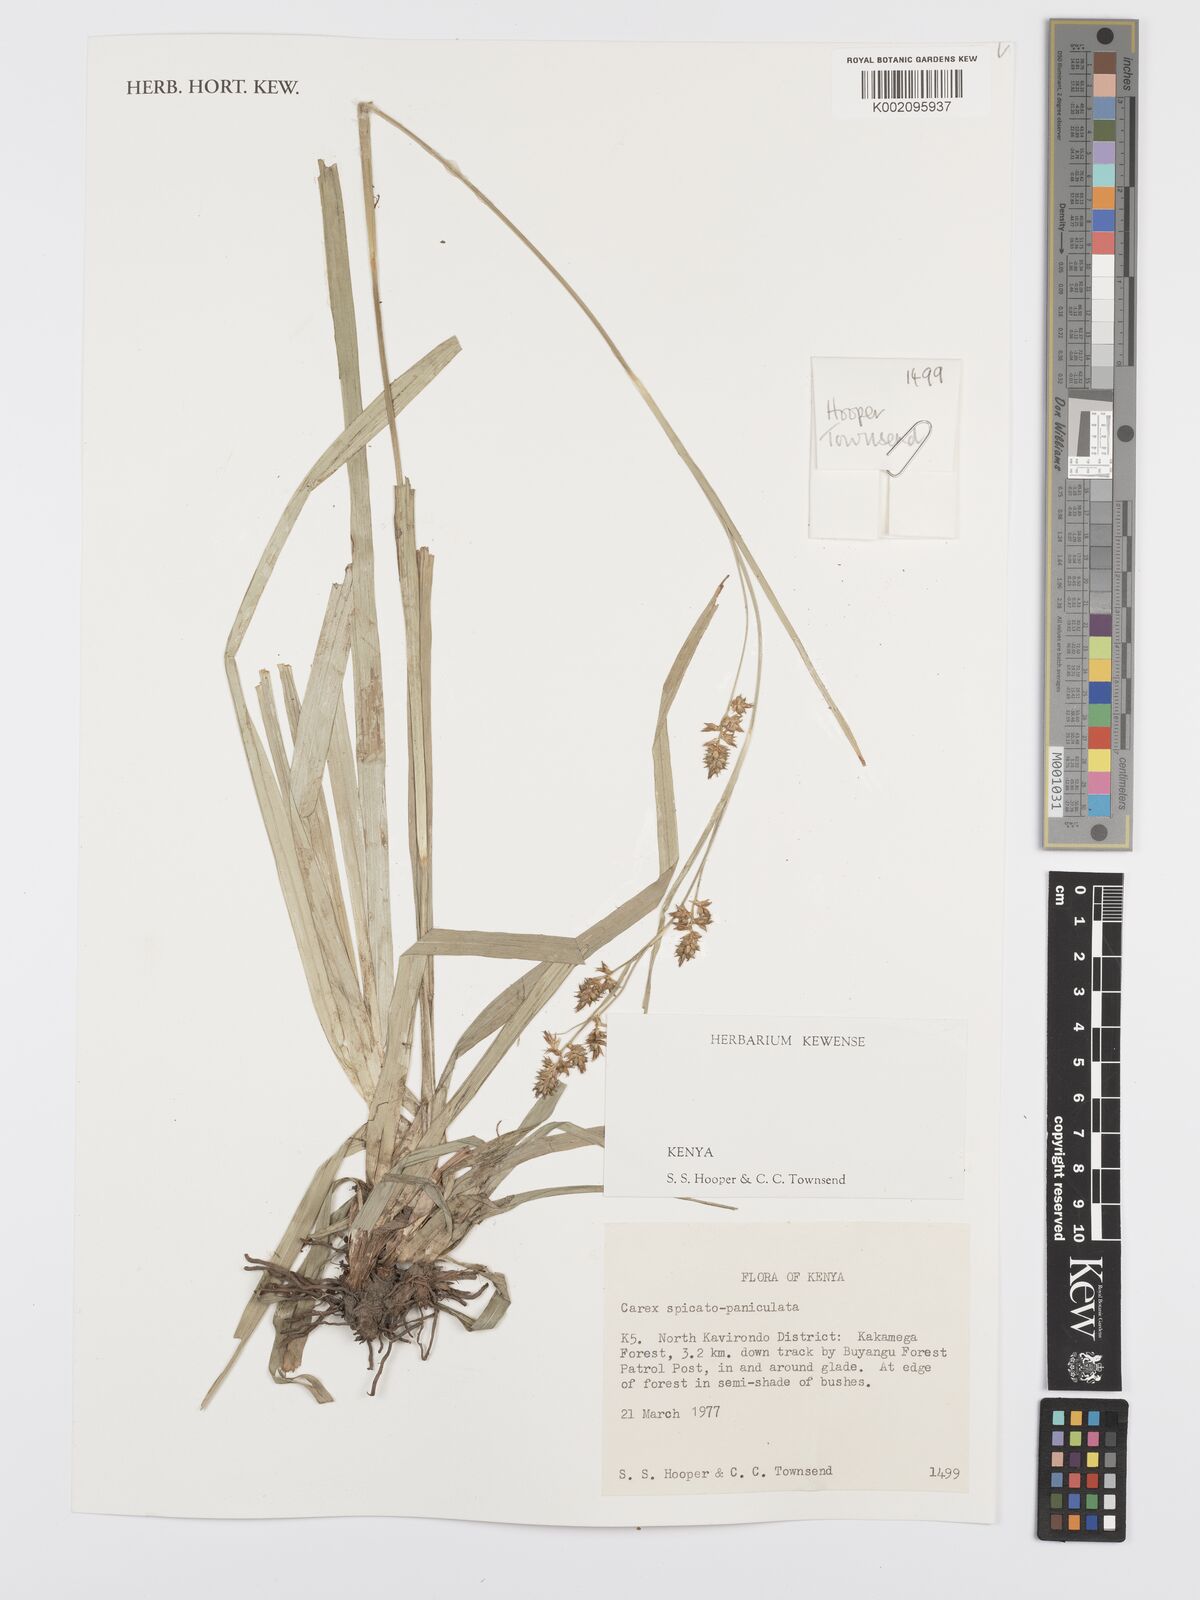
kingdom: Plantae
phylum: Tracheophyta
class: Liliopsida
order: Poales
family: Cyperaceae
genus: Carex
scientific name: Carex spicatopaniculata
